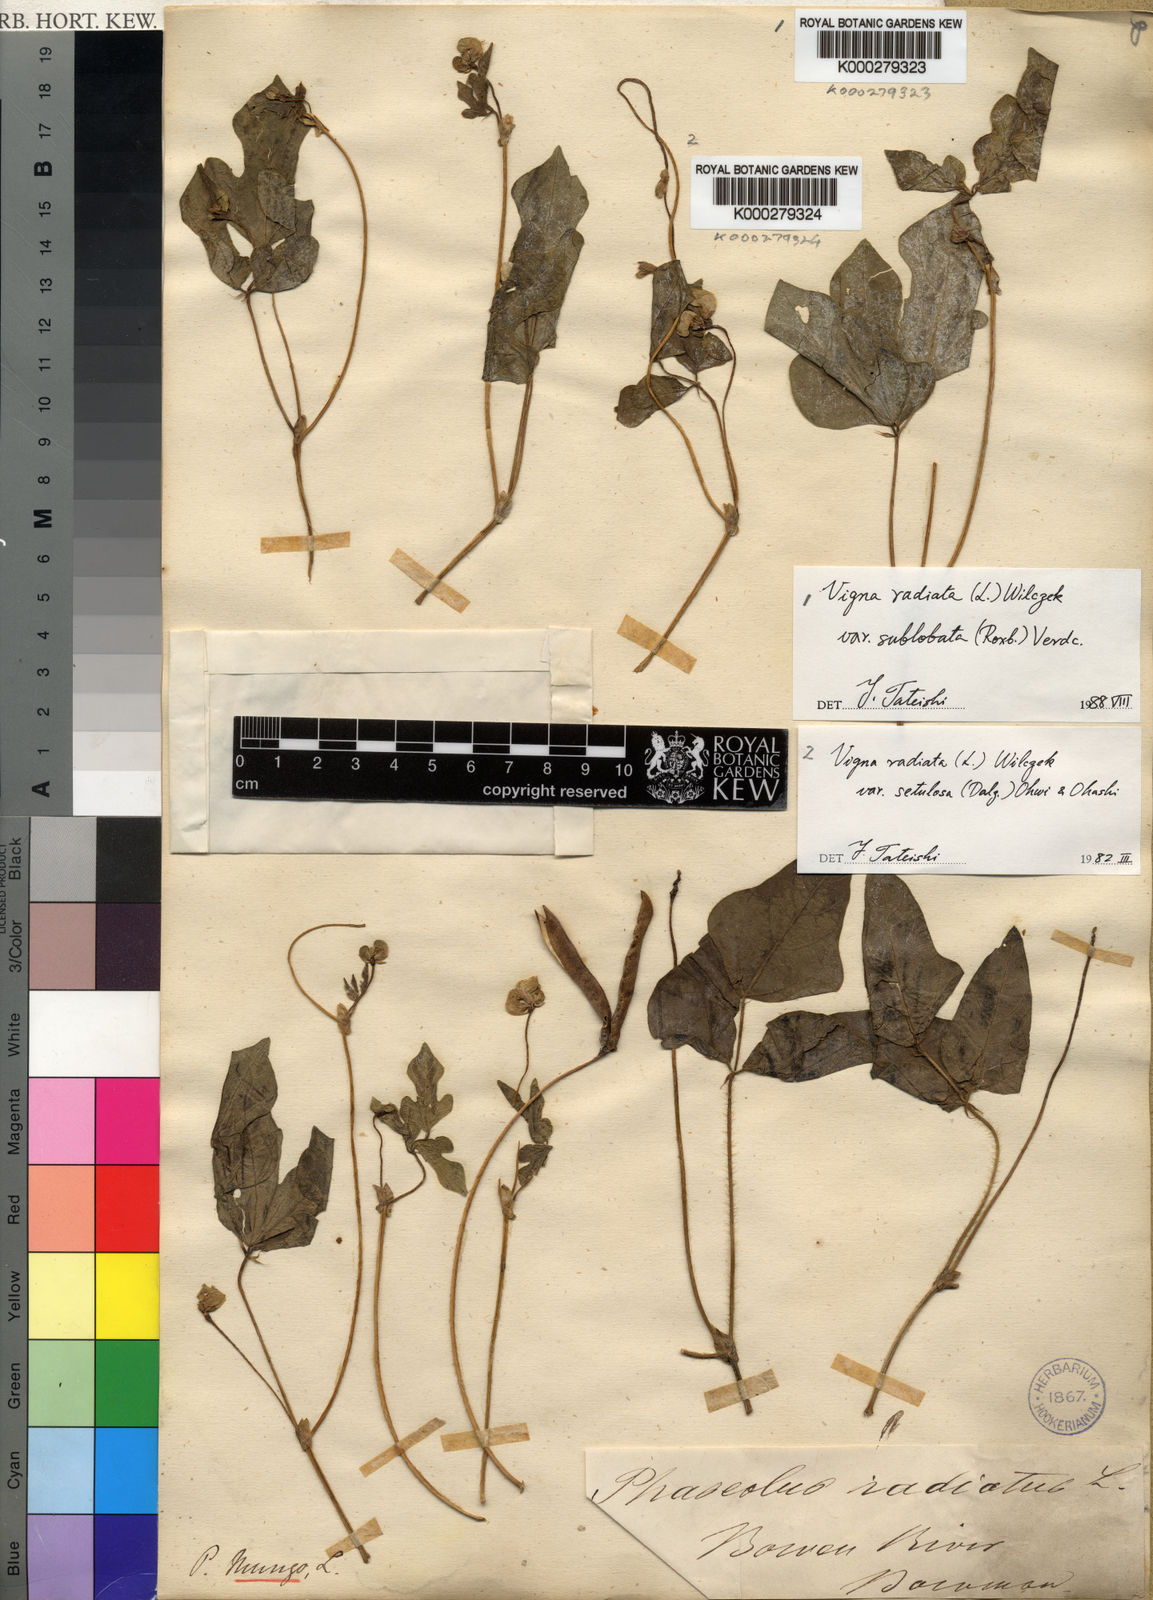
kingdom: Plantae
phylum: Tracheophyta
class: Magnoliopsida
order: Fabales
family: Fabaceae
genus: Vigna
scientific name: Vigna radiata
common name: Mung-bean
